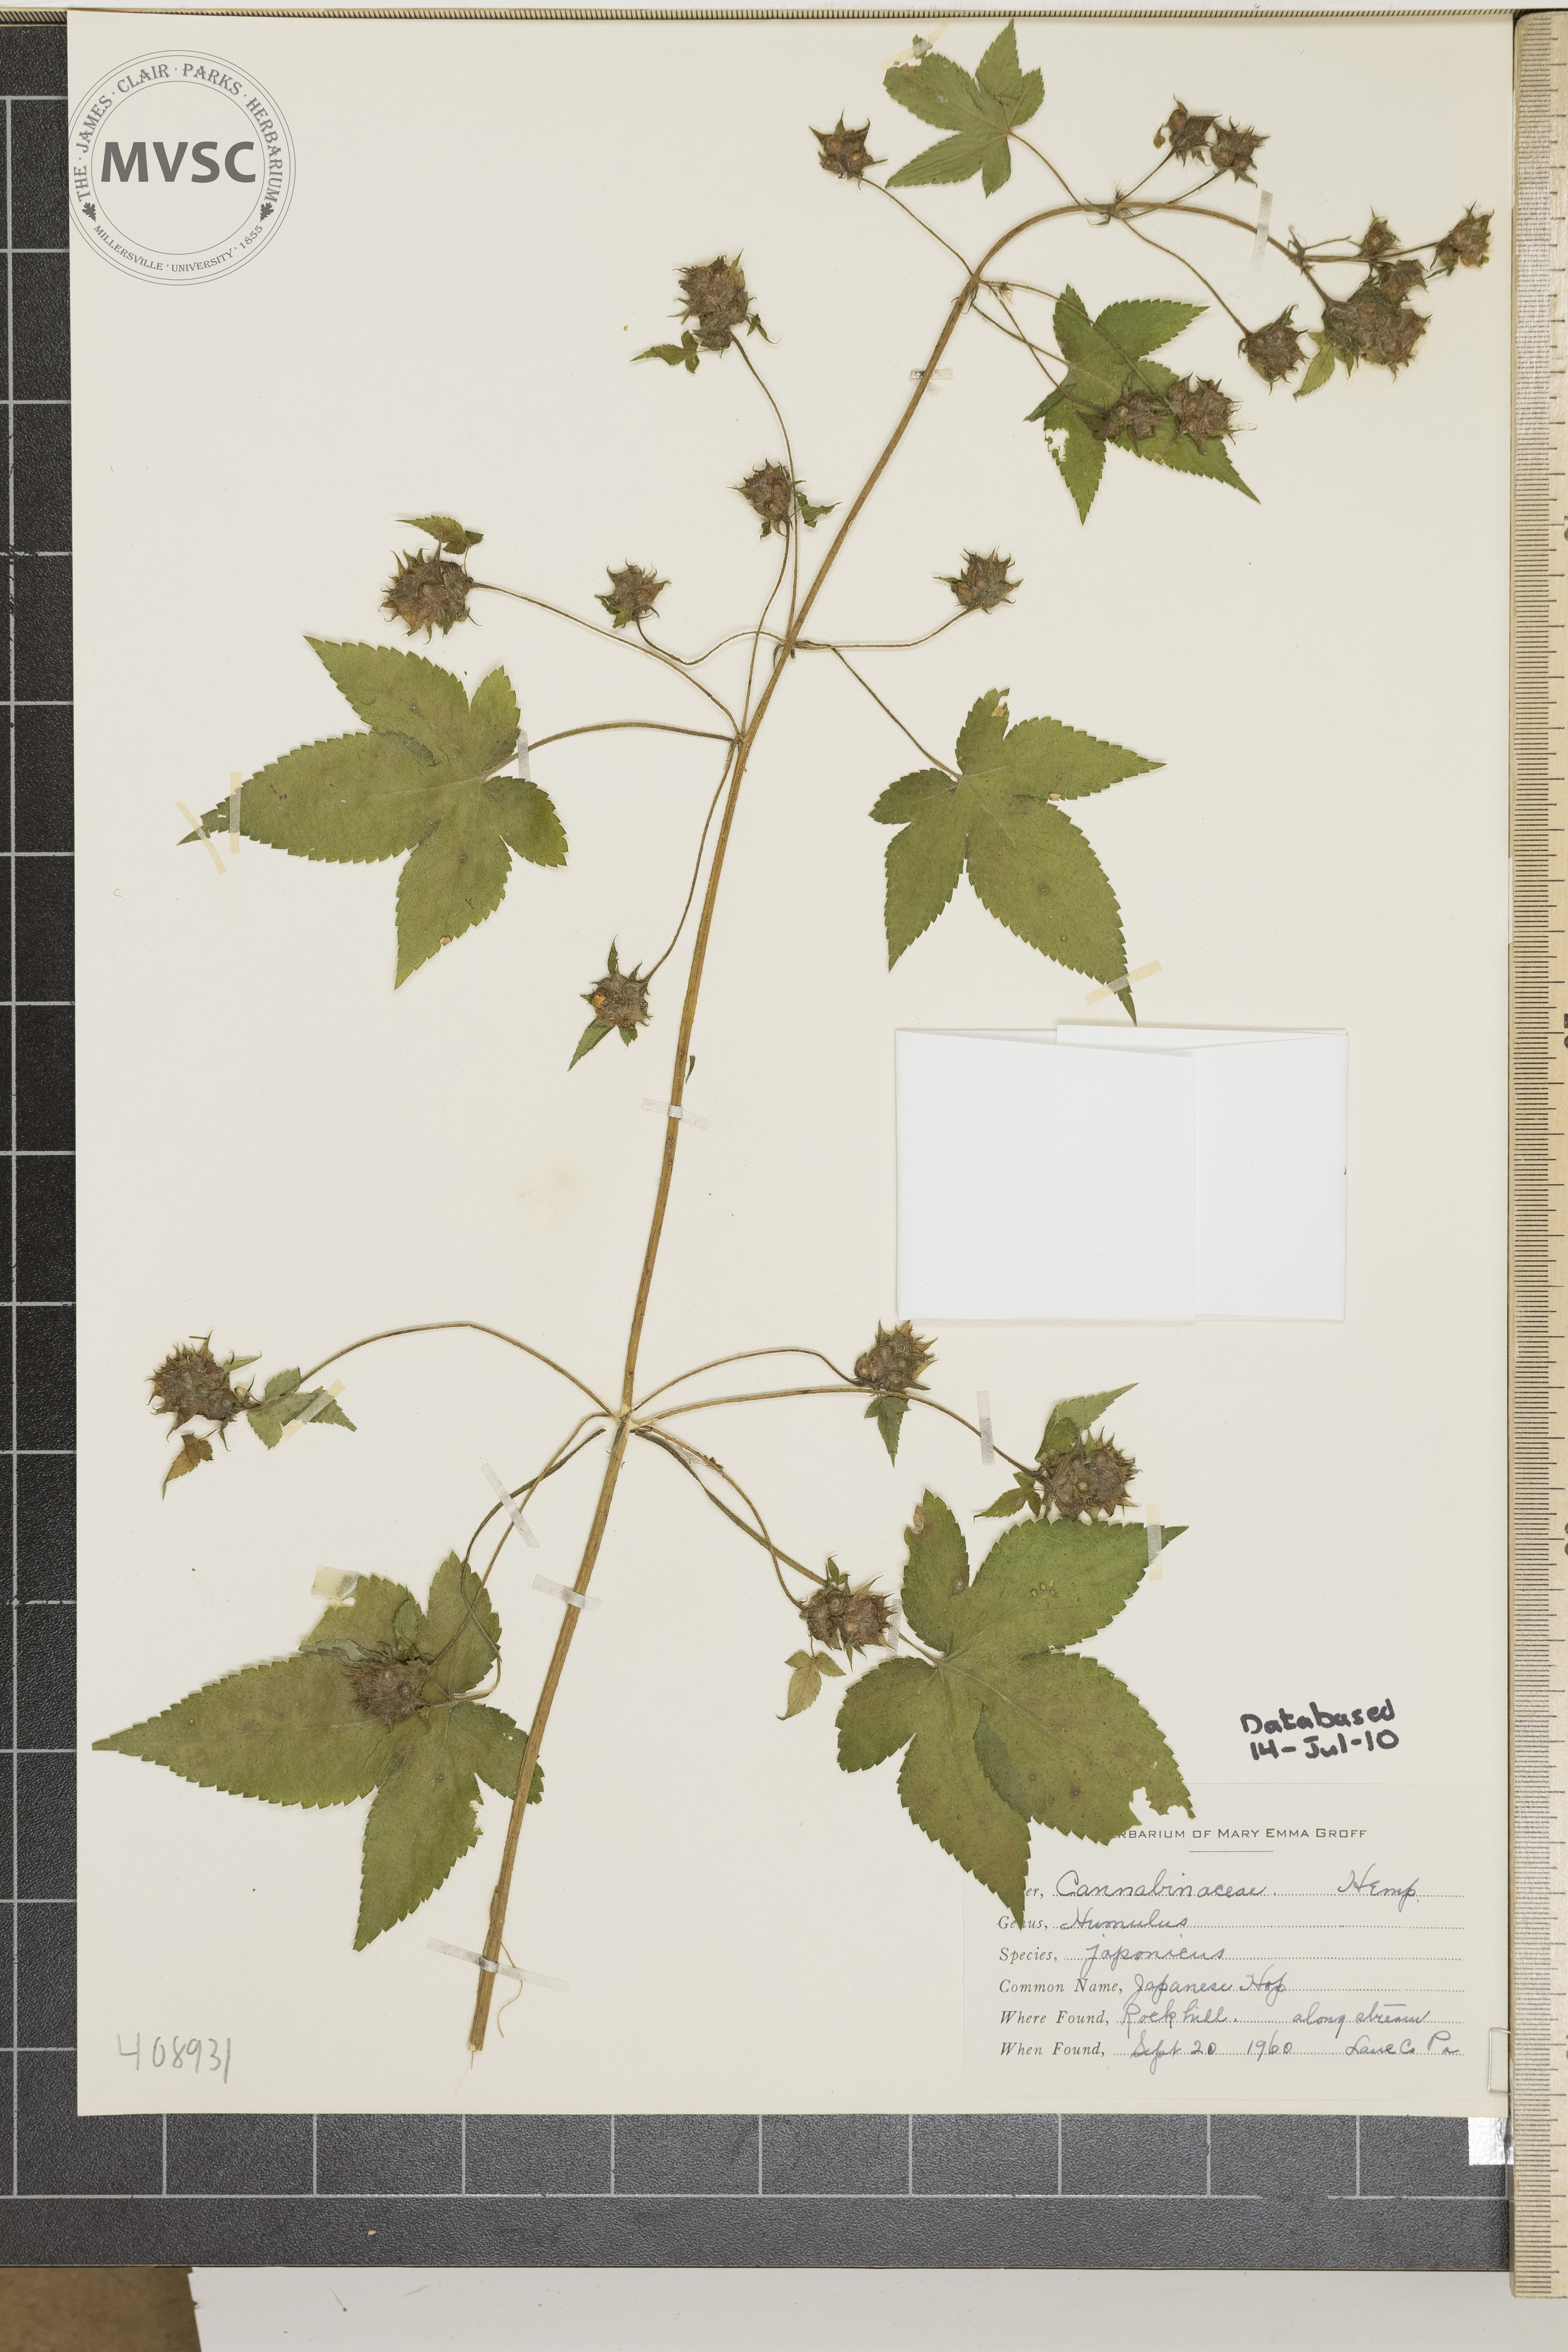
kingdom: Plantae
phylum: Tracheophyta
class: Magnoliopsida
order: Rosales
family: Cannabaceae
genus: Humulus
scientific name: Humulus scandens
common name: Japanese hops
